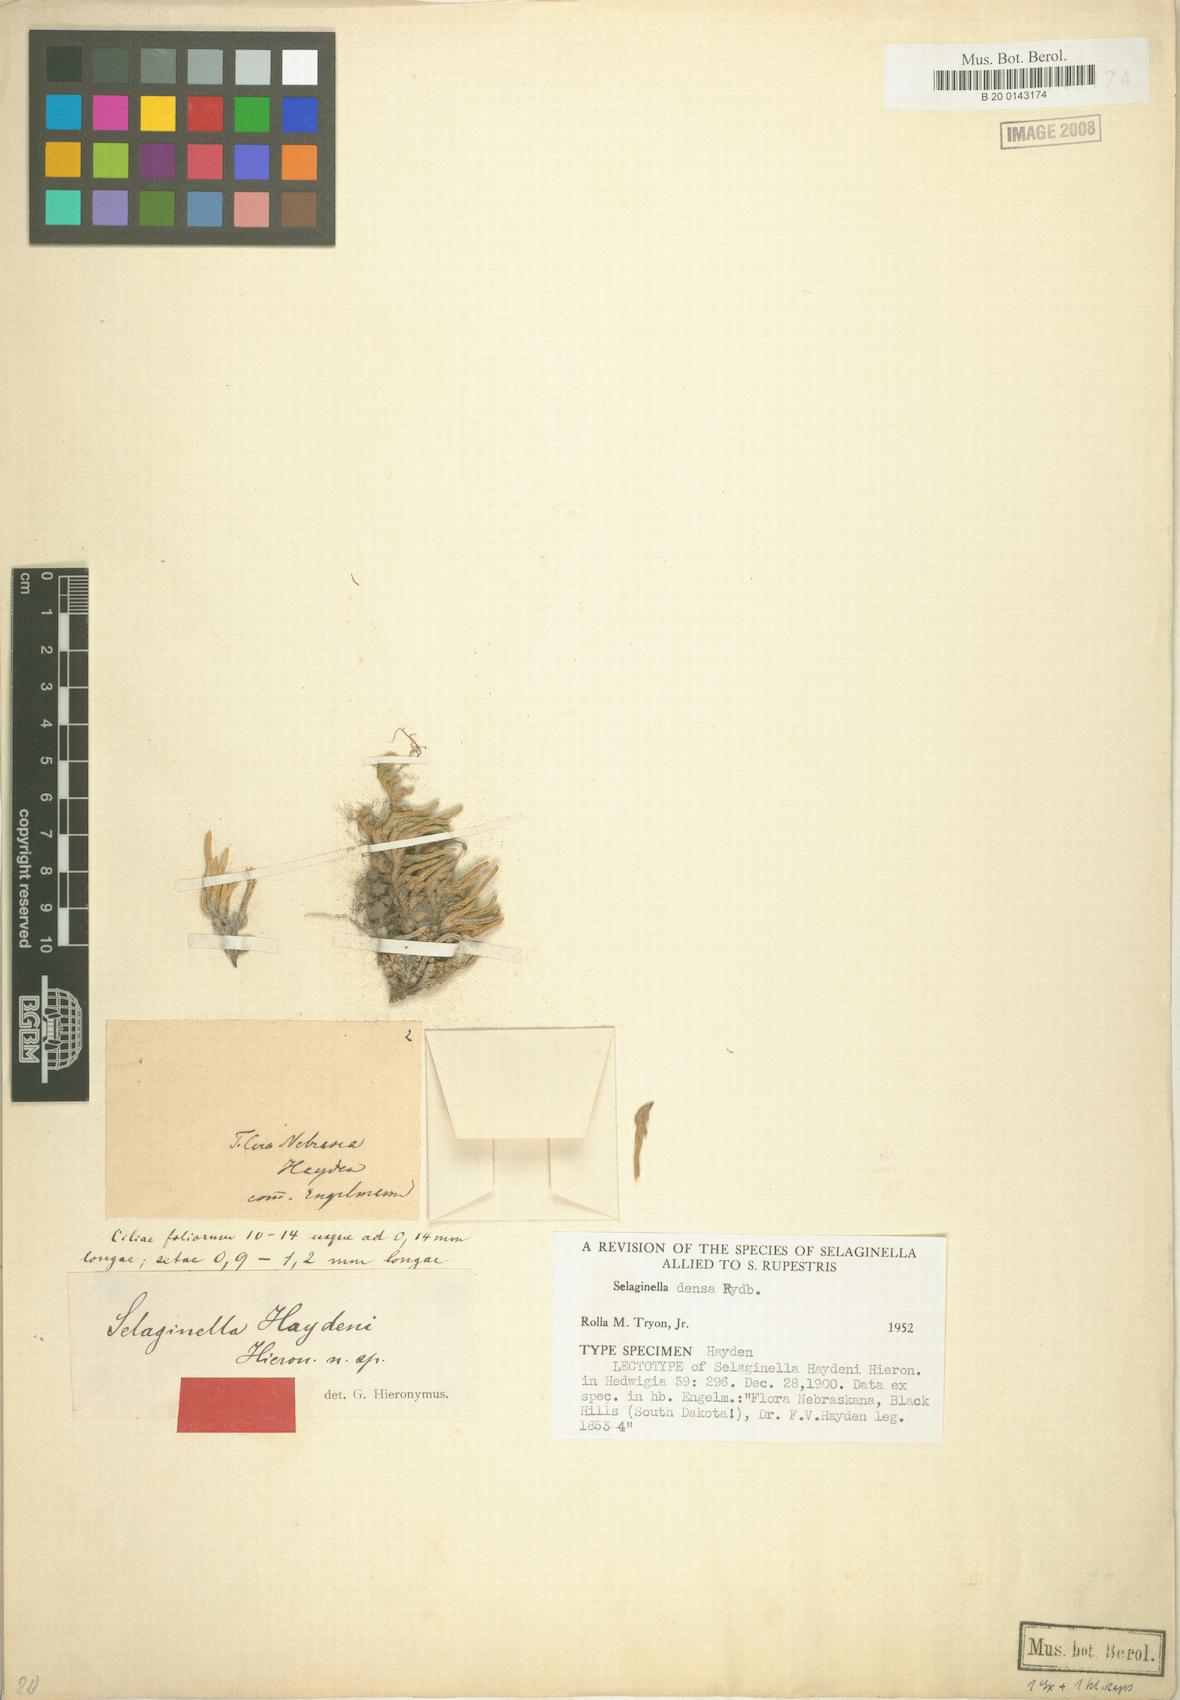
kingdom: Plantae
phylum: Tracheophyta
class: Lycopodiopsida
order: Selaginellales
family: Selaginellaceae
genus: Selaginella
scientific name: Selaginella densa
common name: Mountain spike-moss
